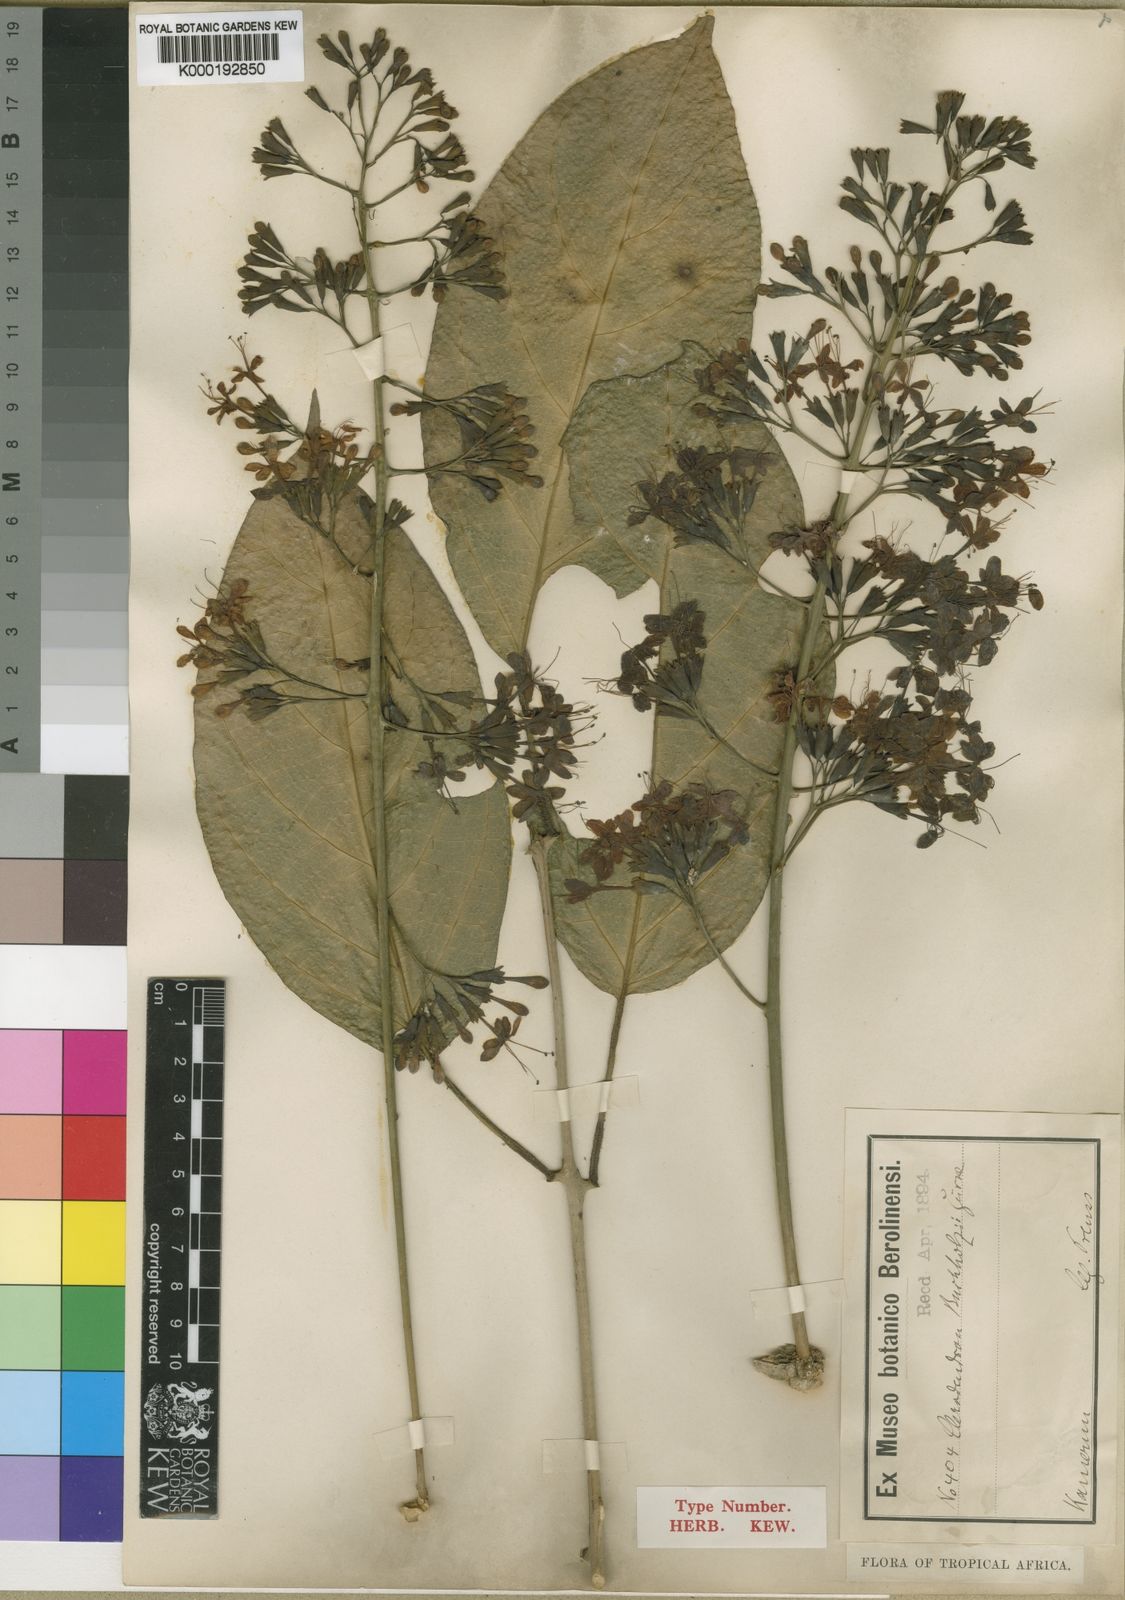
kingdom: Plantae
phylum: Tracheophyta
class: Magnoliopsida
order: Lamiales
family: Lamiaceae
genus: Clerodendrum
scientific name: Clerodendrum
